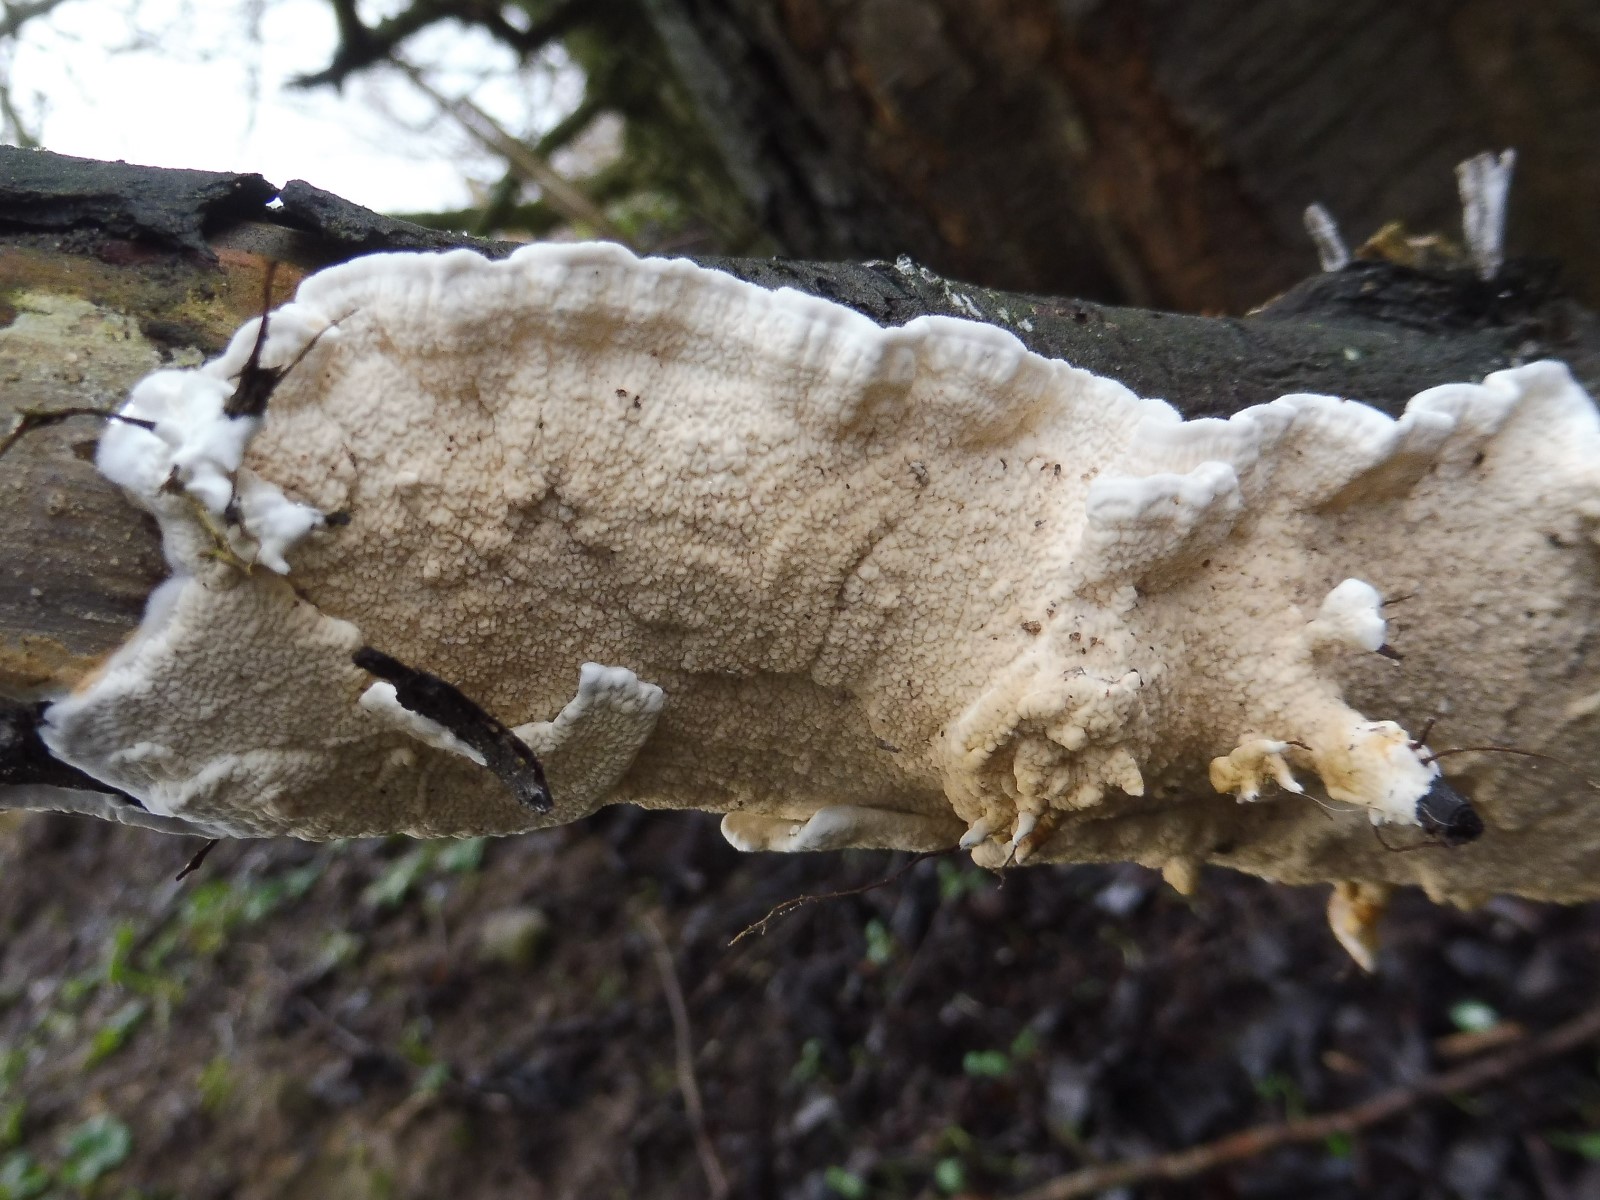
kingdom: Fungi
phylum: Basidiomycota
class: Agaricomycetes
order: Polyporales
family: Irpicaceae
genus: Byssomerulius
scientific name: Byssomerulius corium
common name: læder-åresvamp
